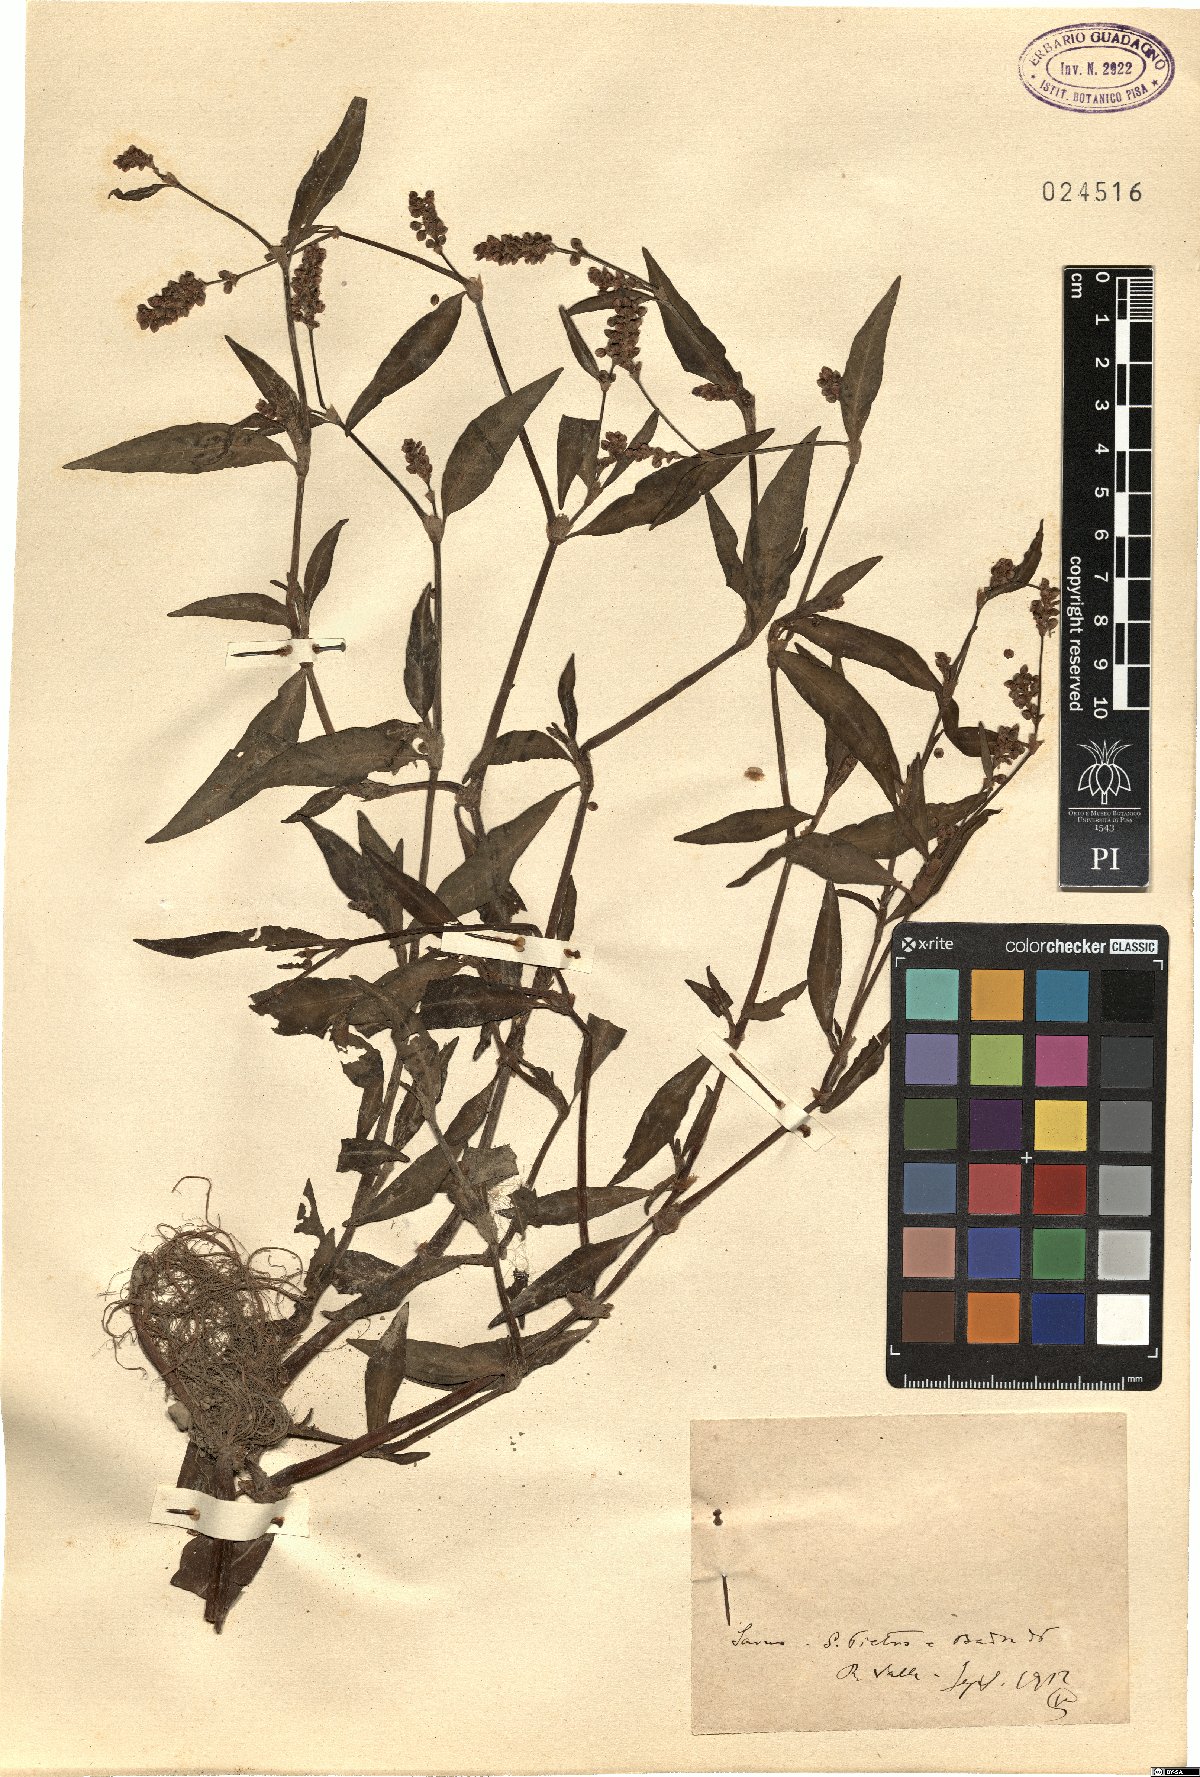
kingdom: Plantae
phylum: Tracheophyta
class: Magnoliopsida
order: Caryophyllales
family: Polygonaceae
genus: Polygonum
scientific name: Polygonum
